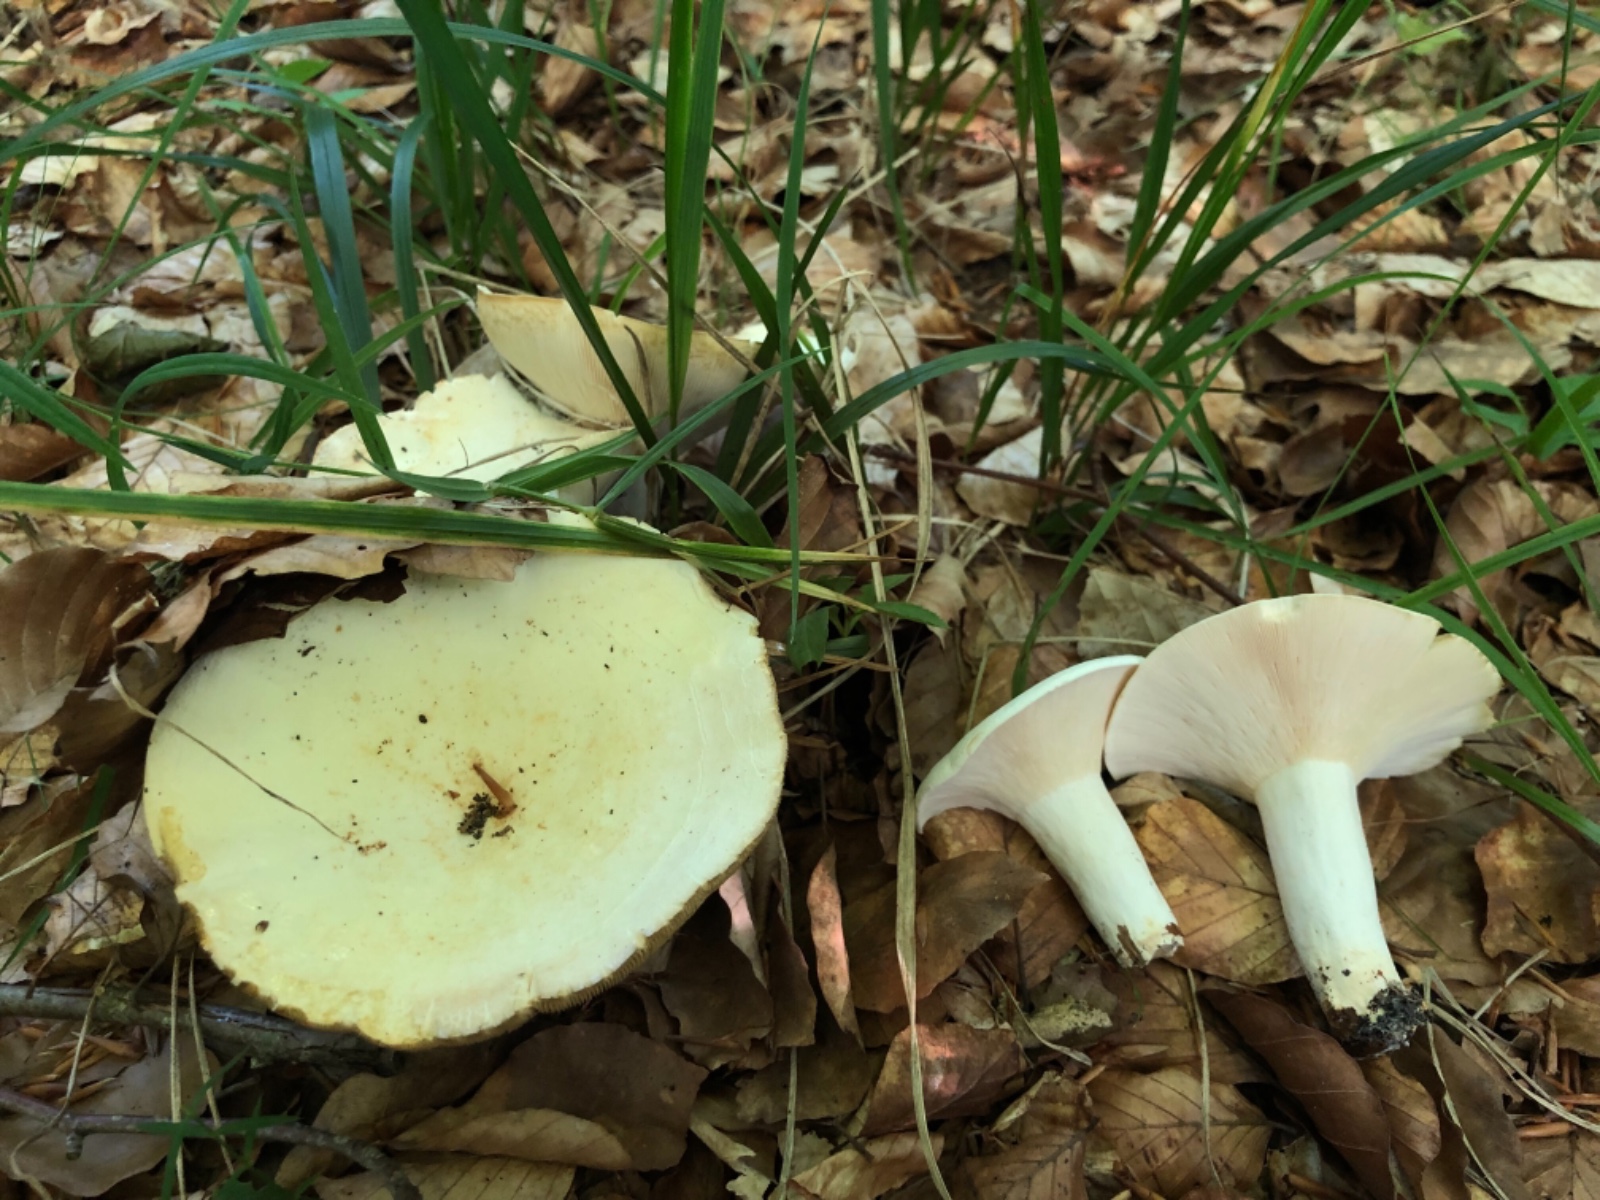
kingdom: Fungi
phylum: Basidiomycota
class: Agaricomycetes
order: Russulales
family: Russulaceae
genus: Lactifluus
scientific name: Lactifluus
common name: mælkehat
